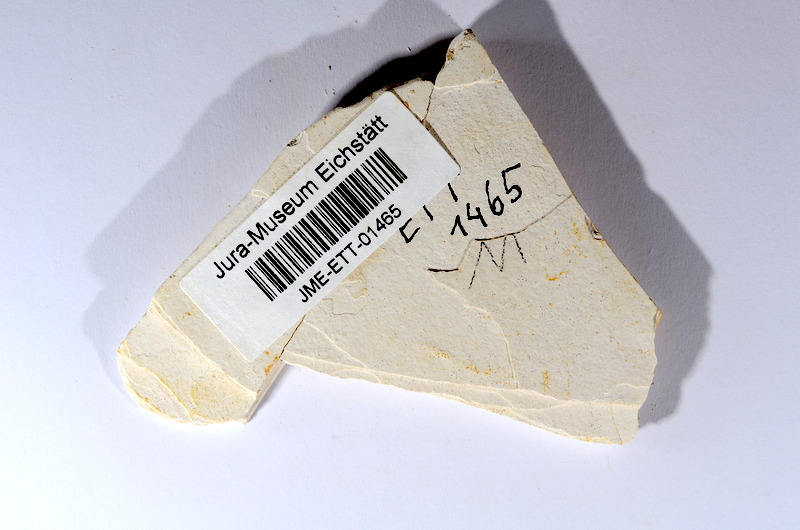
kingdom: Animalia
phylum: Chordata
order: Salmoniformes
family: Orthogonikleithridae
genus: Orthogonikleithrus
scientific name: Orthogonikleithrus hoelli
